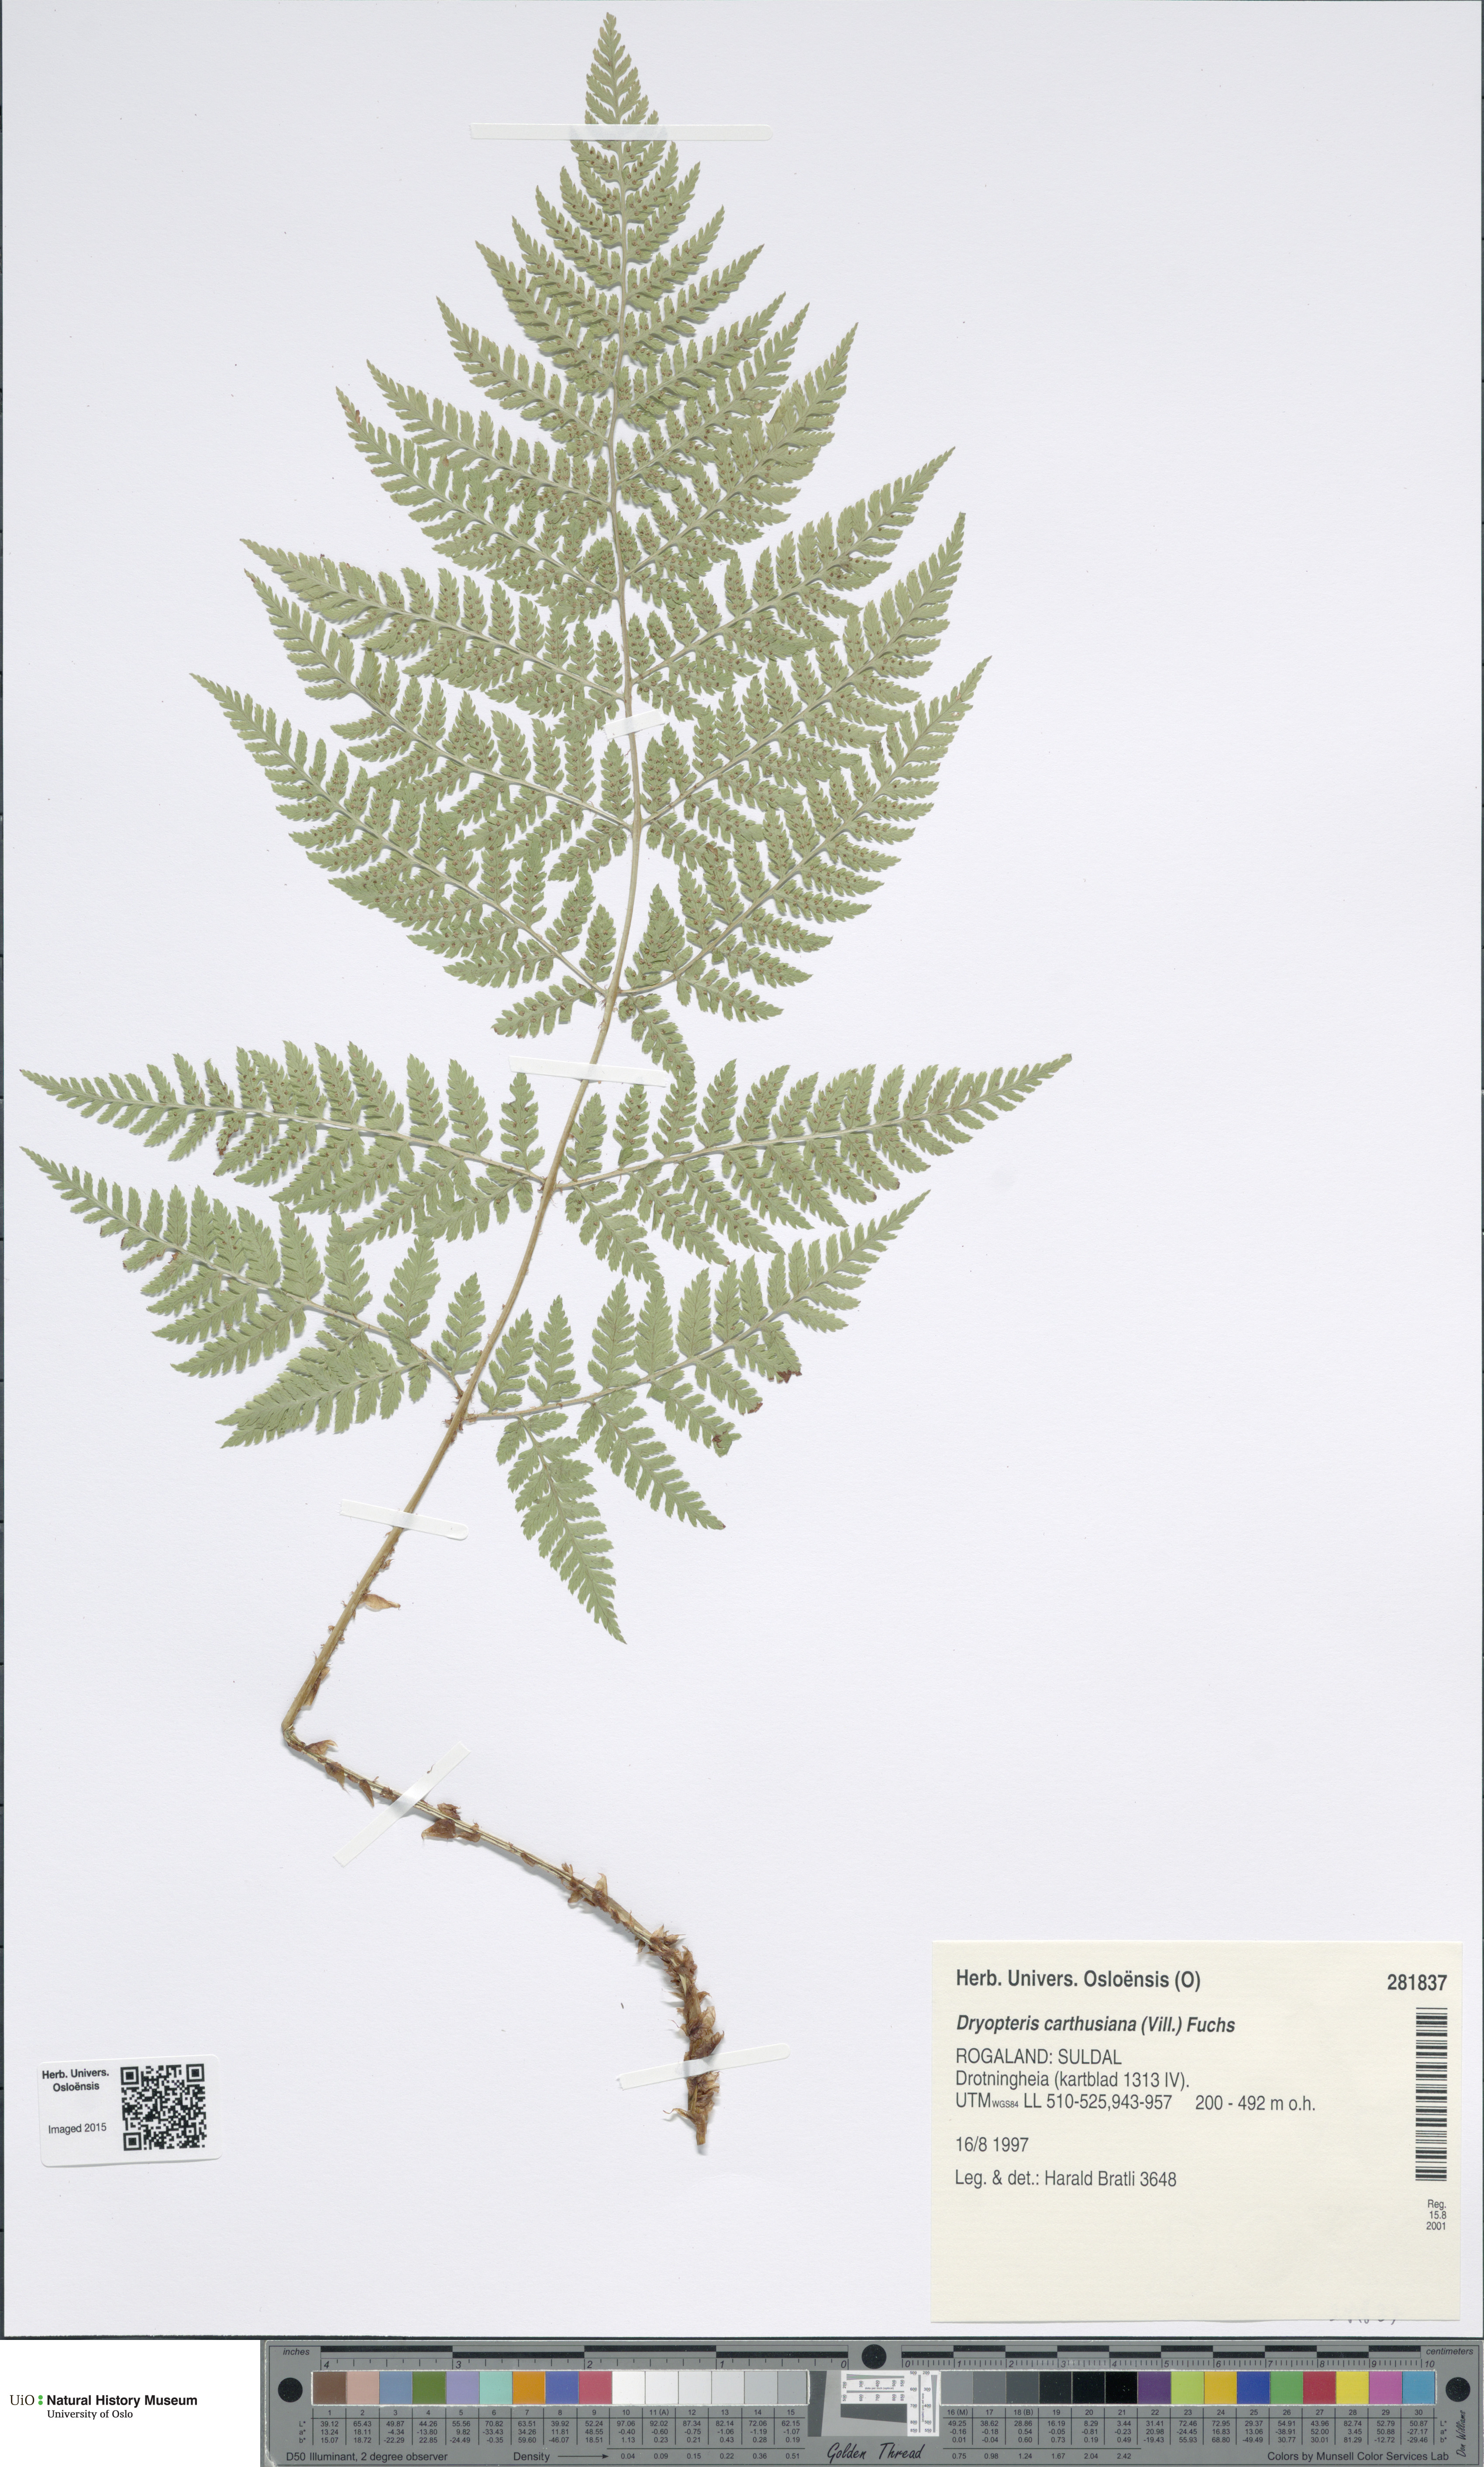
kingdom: Plantae
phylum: Tracheophyta
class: Polypodiopsida
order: Polypodiales
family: Dryopteridaceae
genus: Dryopteris
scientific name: Dryopteris carthusiana
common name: Narrow buckler-fern
